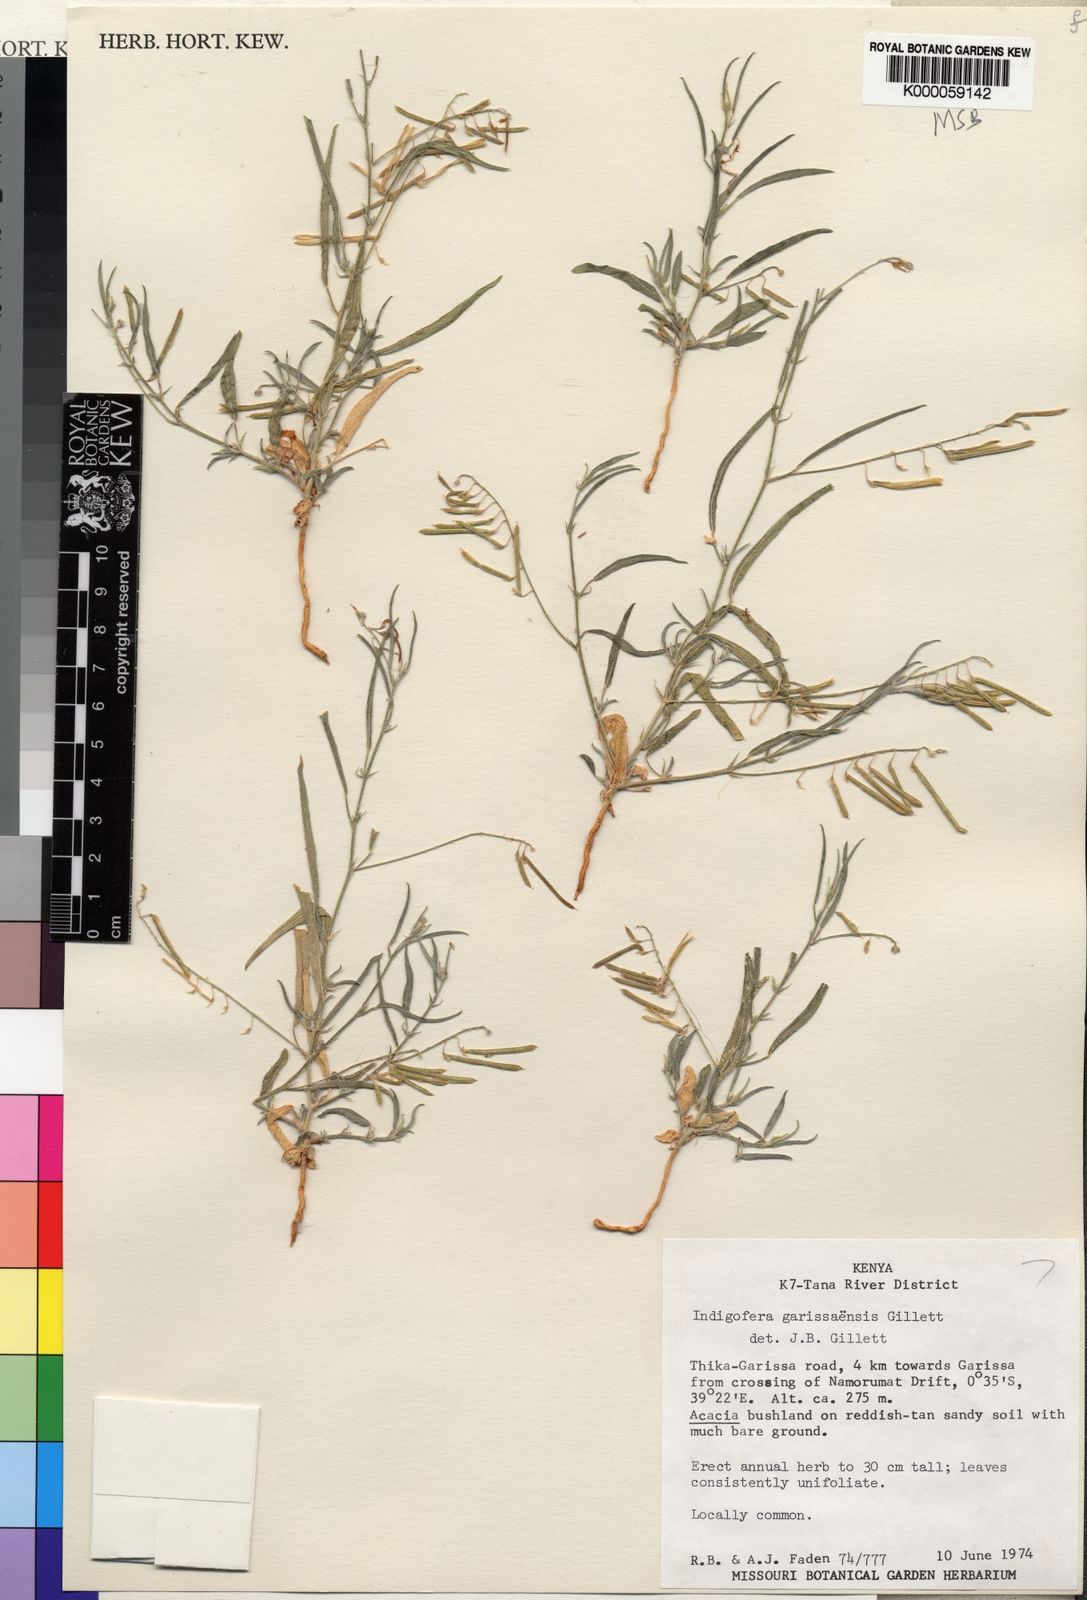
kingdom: Plantae
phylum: Tracheophyta
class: Magnoliopsida
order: Fabales
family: Fabaceae
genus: Microcharis
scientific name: Microcharis garissaensis
